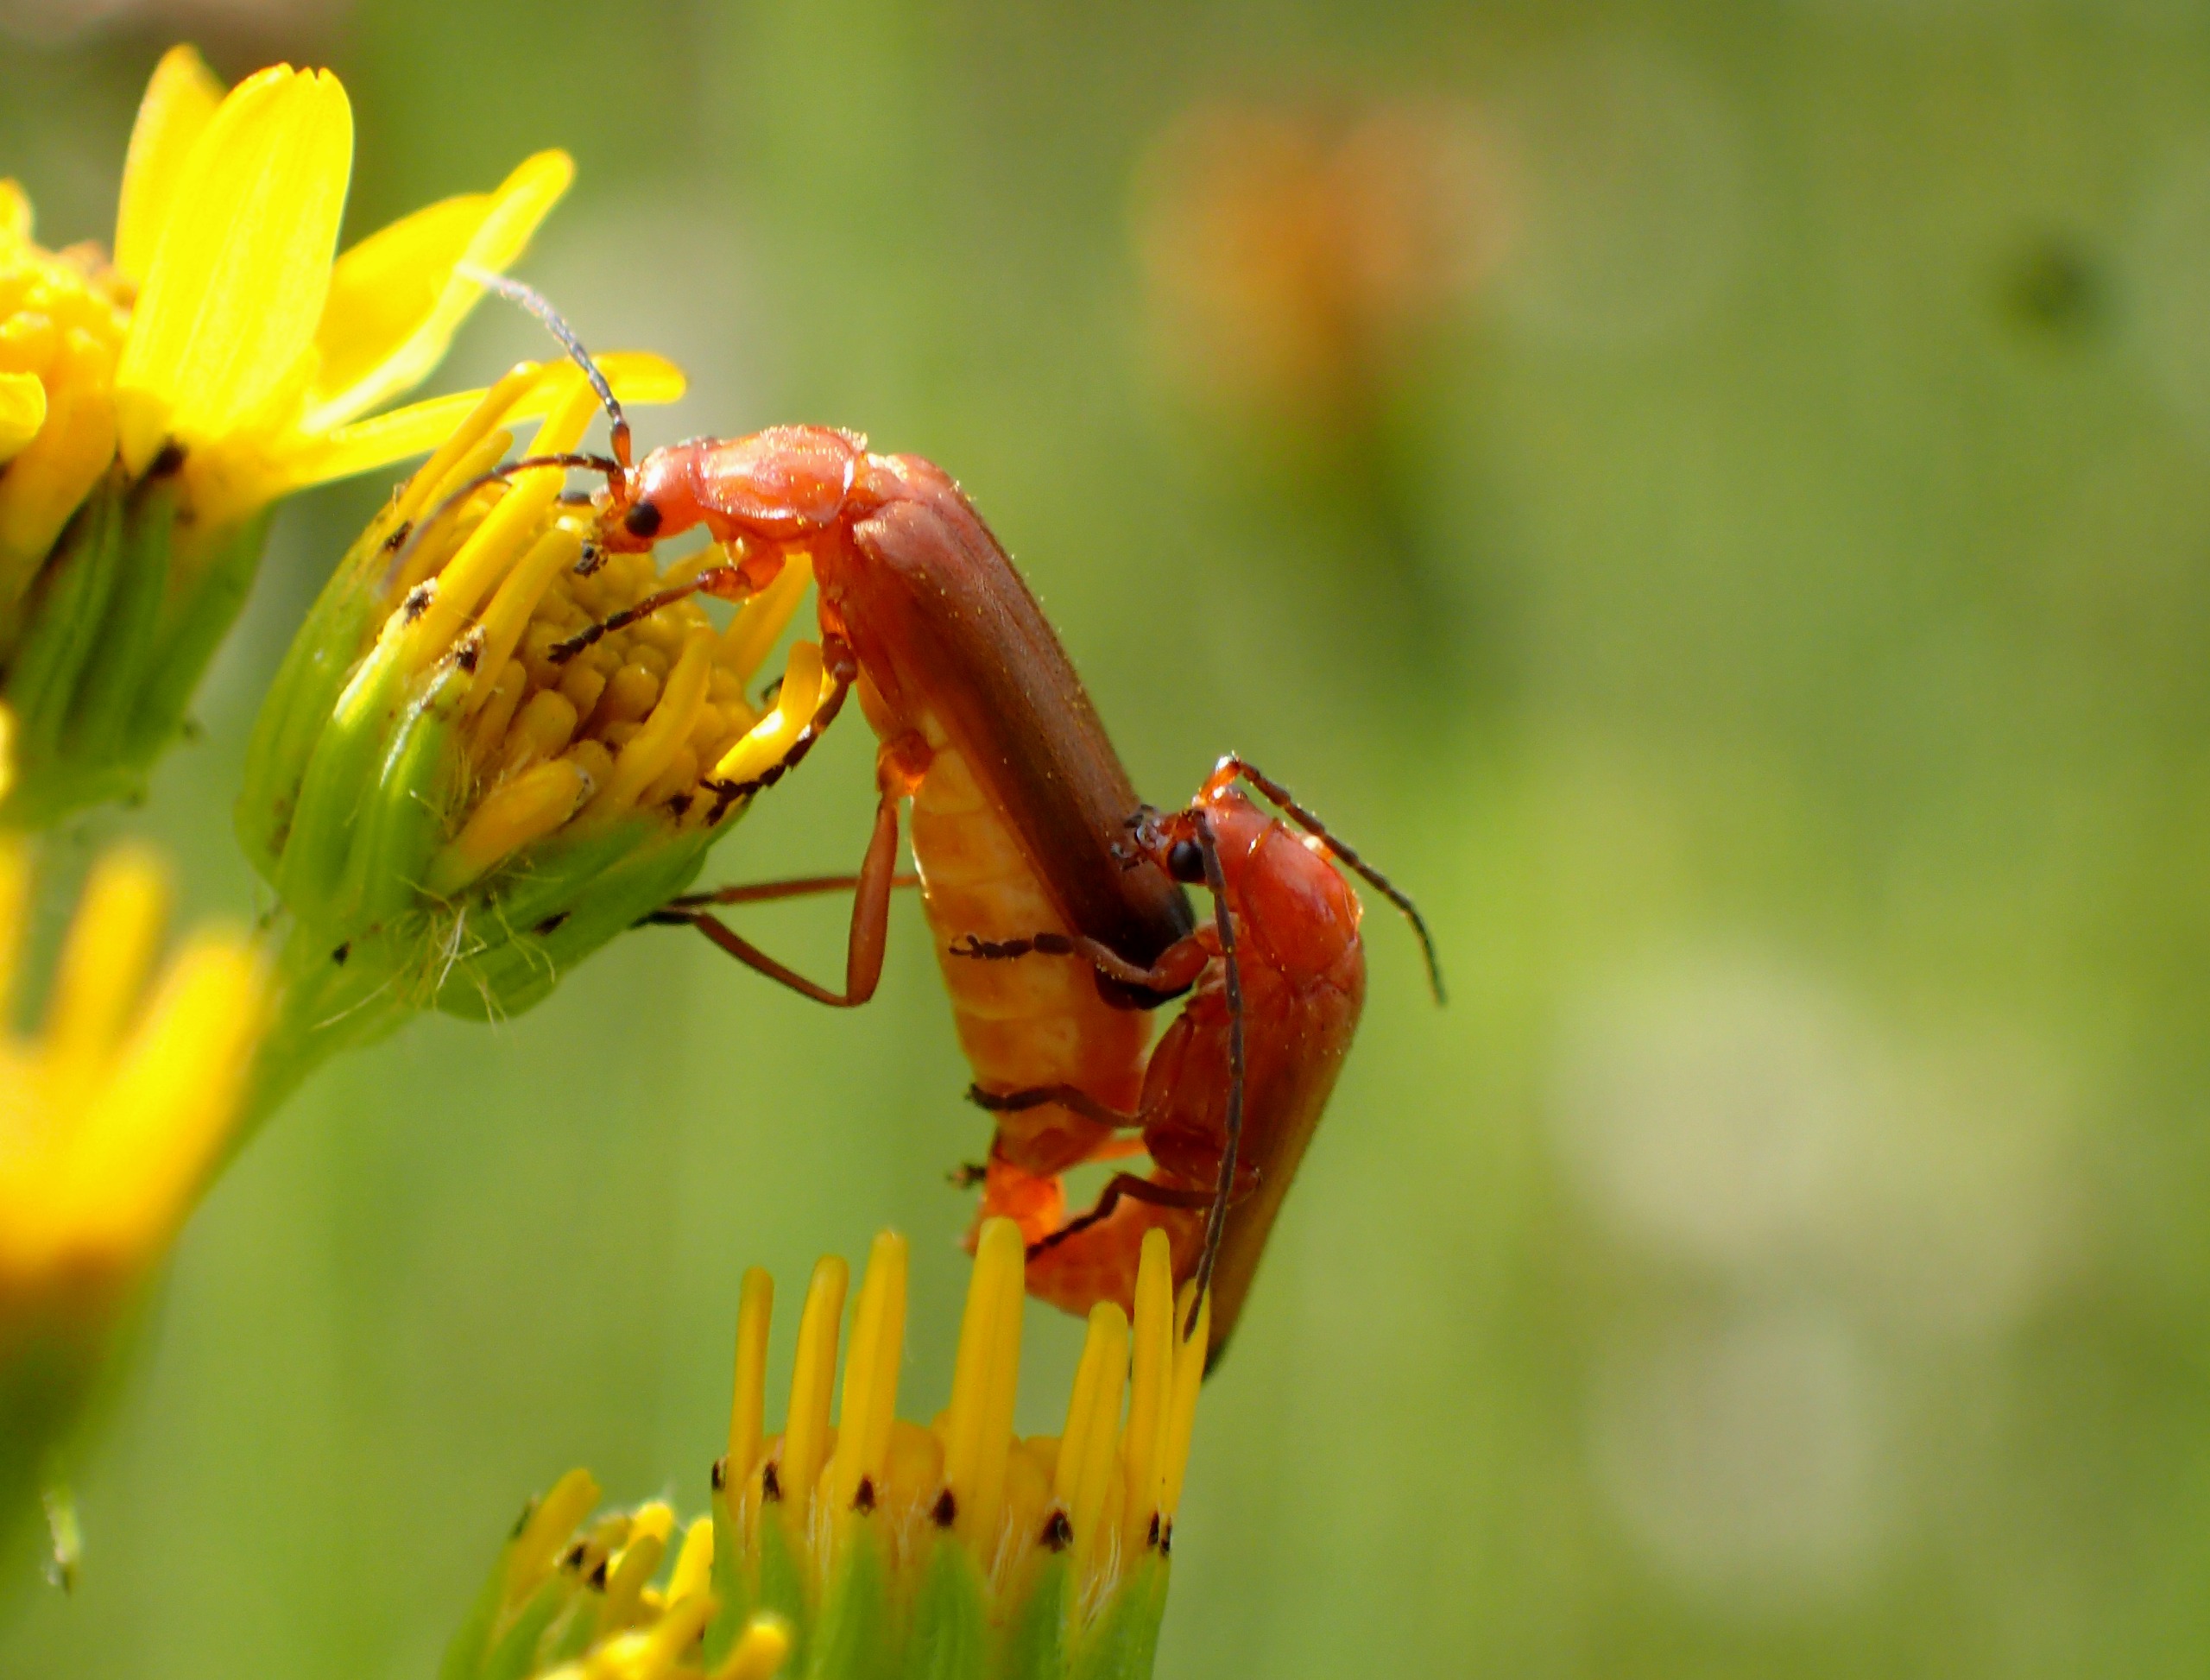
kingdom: Animalia
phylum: Arthropoda
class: Insecta
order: Coleoptera
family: Cantharidae
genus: Rhagonycha
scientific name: Rhagonycha fulva
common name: Præstebille
